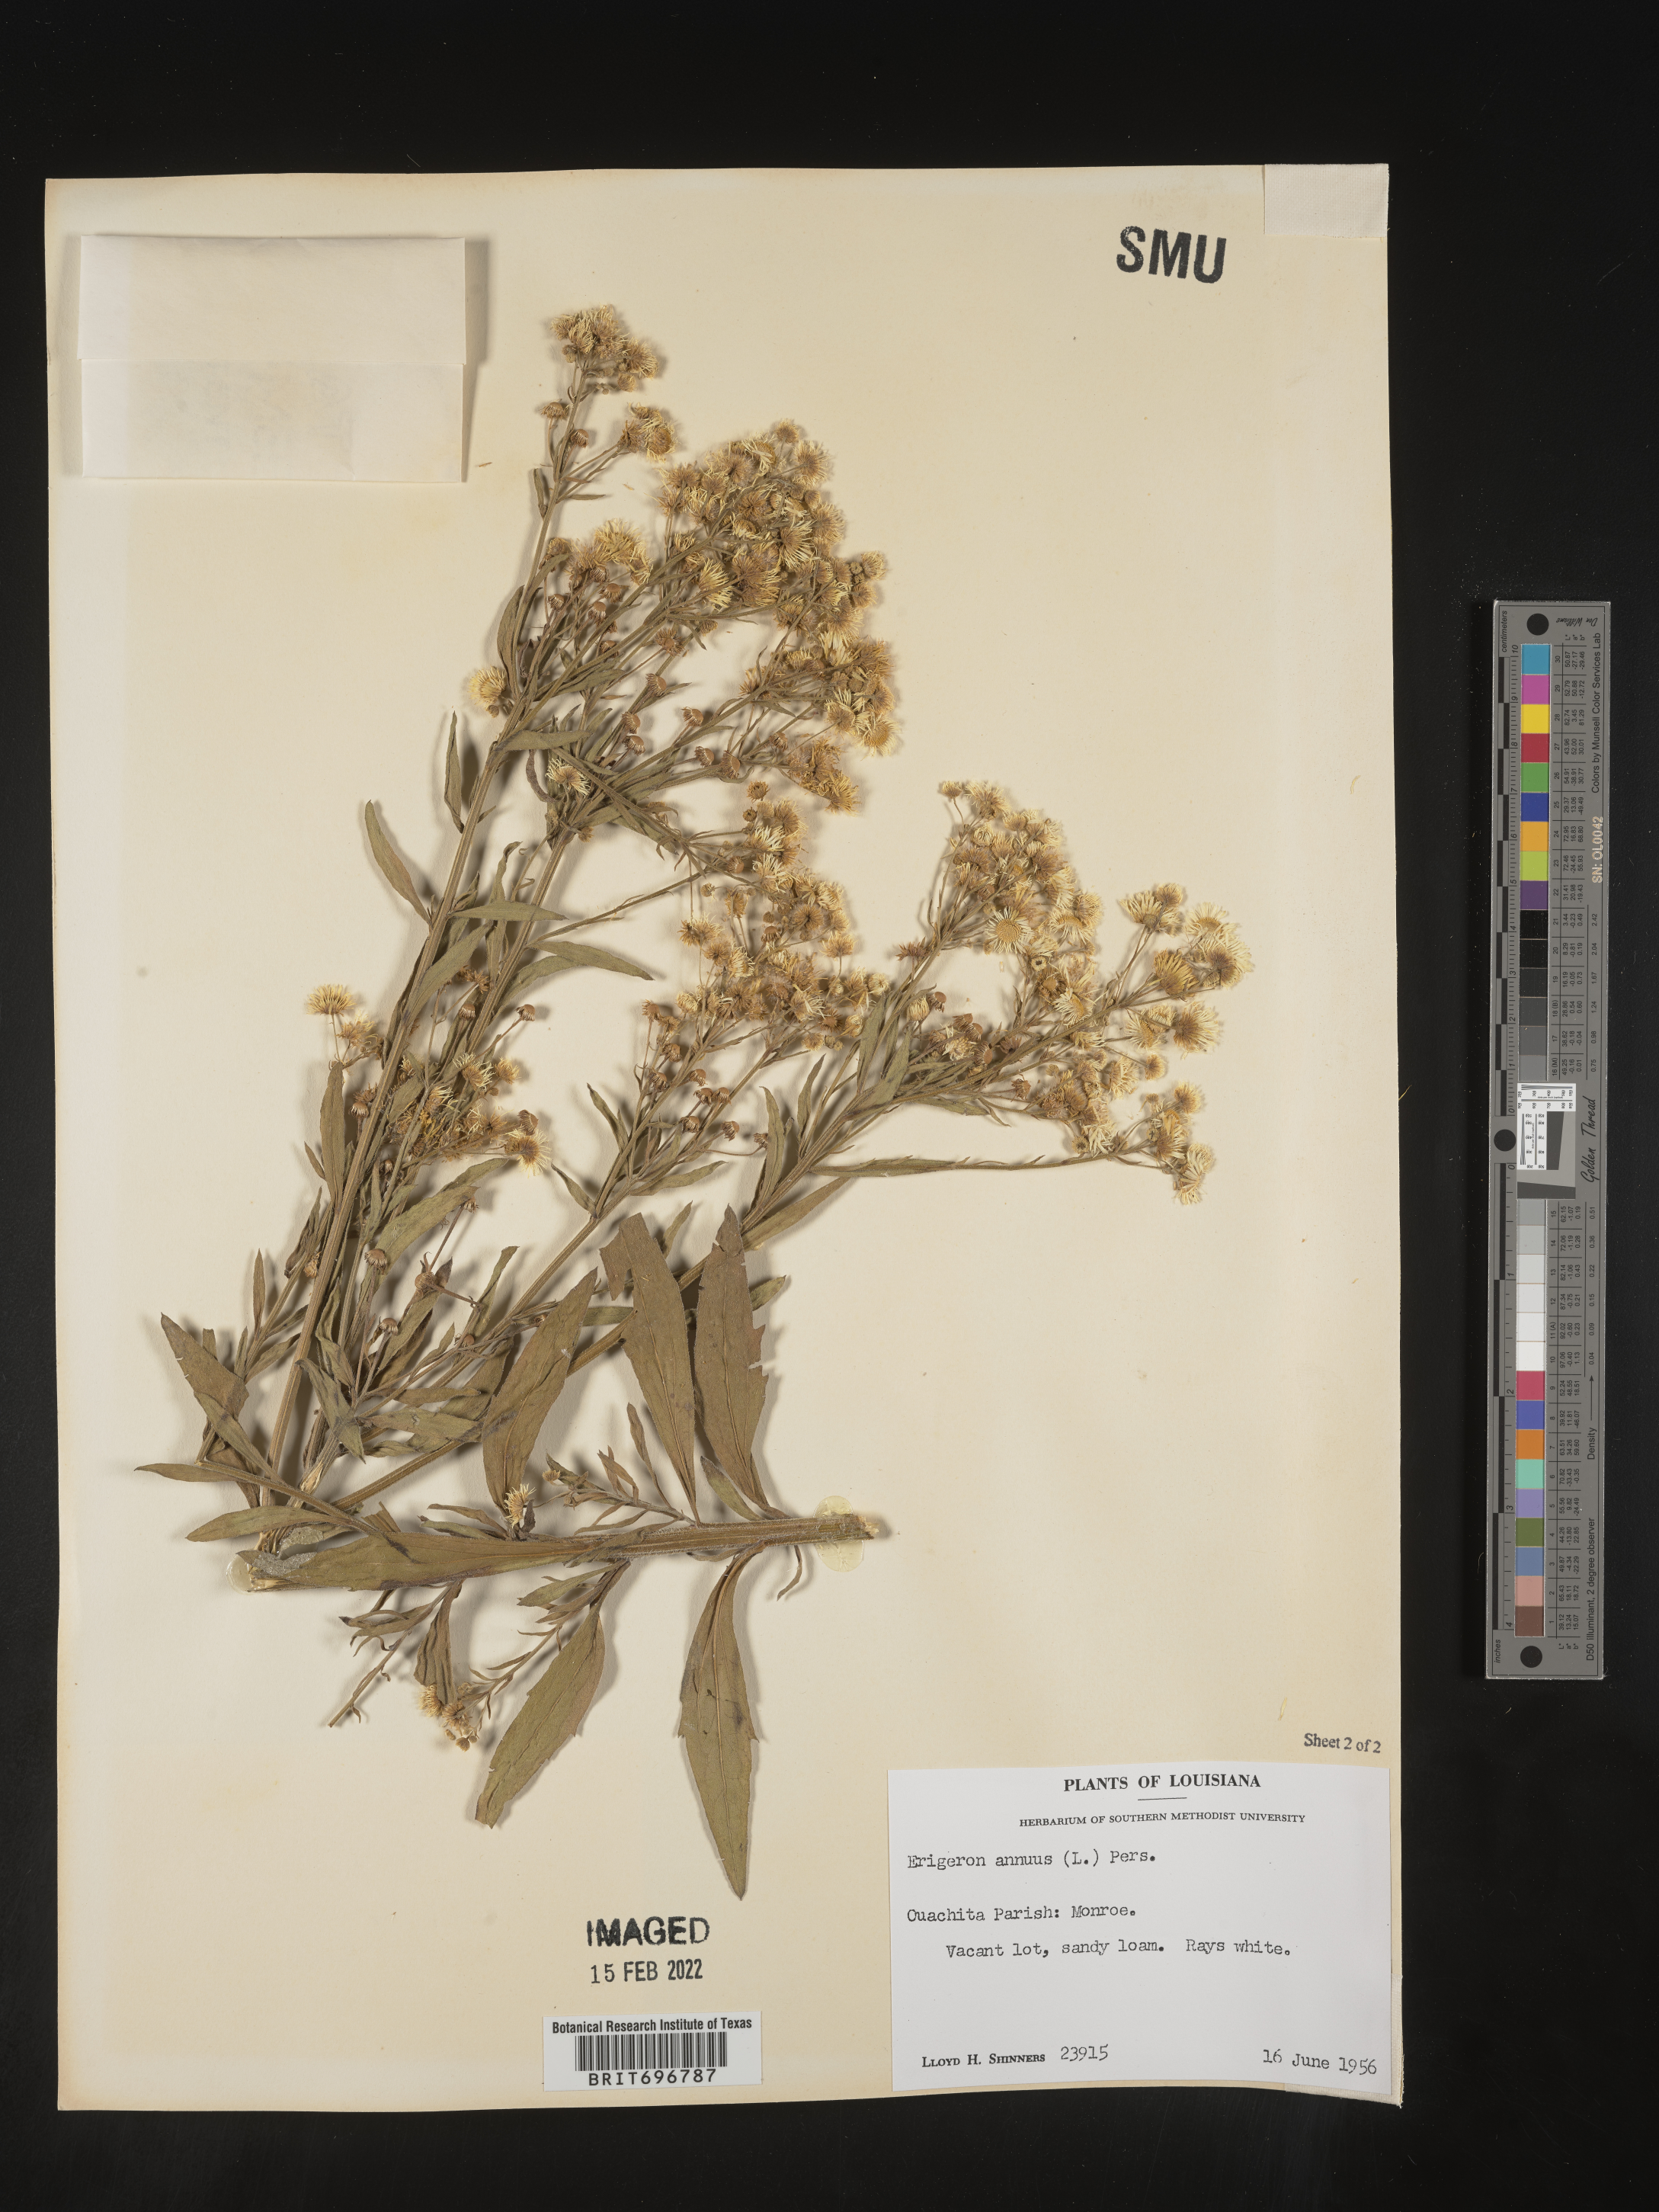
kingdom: Plantae
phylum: Tracheophyta
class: Magnoliopsida
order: Asterales
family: Asteraceae
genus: Erigeron
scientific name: Erigeron annuus
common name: Tall fleabane
